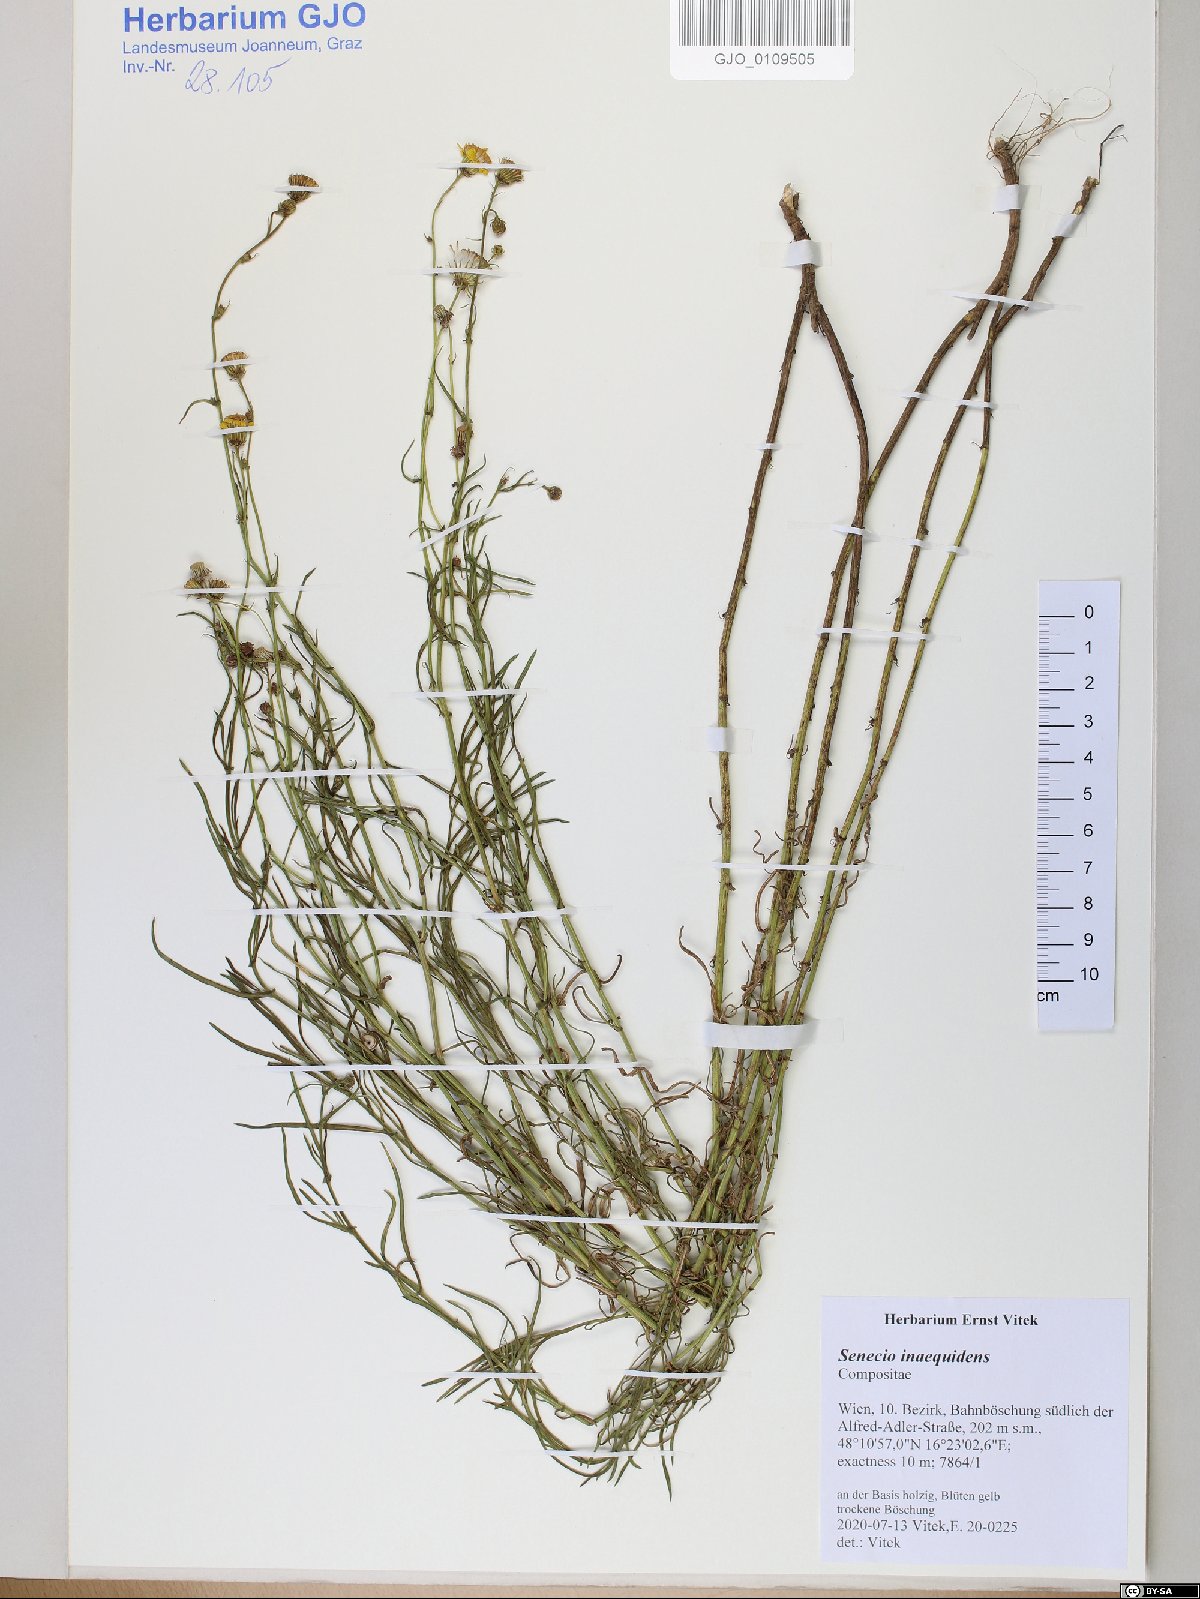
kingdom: Plantae
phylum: Tracheophyta
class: Magnoliopsida
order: Asterales
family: Asteraceae
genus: Senecio
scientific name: Senecio inaequidens
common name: Narrow-leaved ragwort
